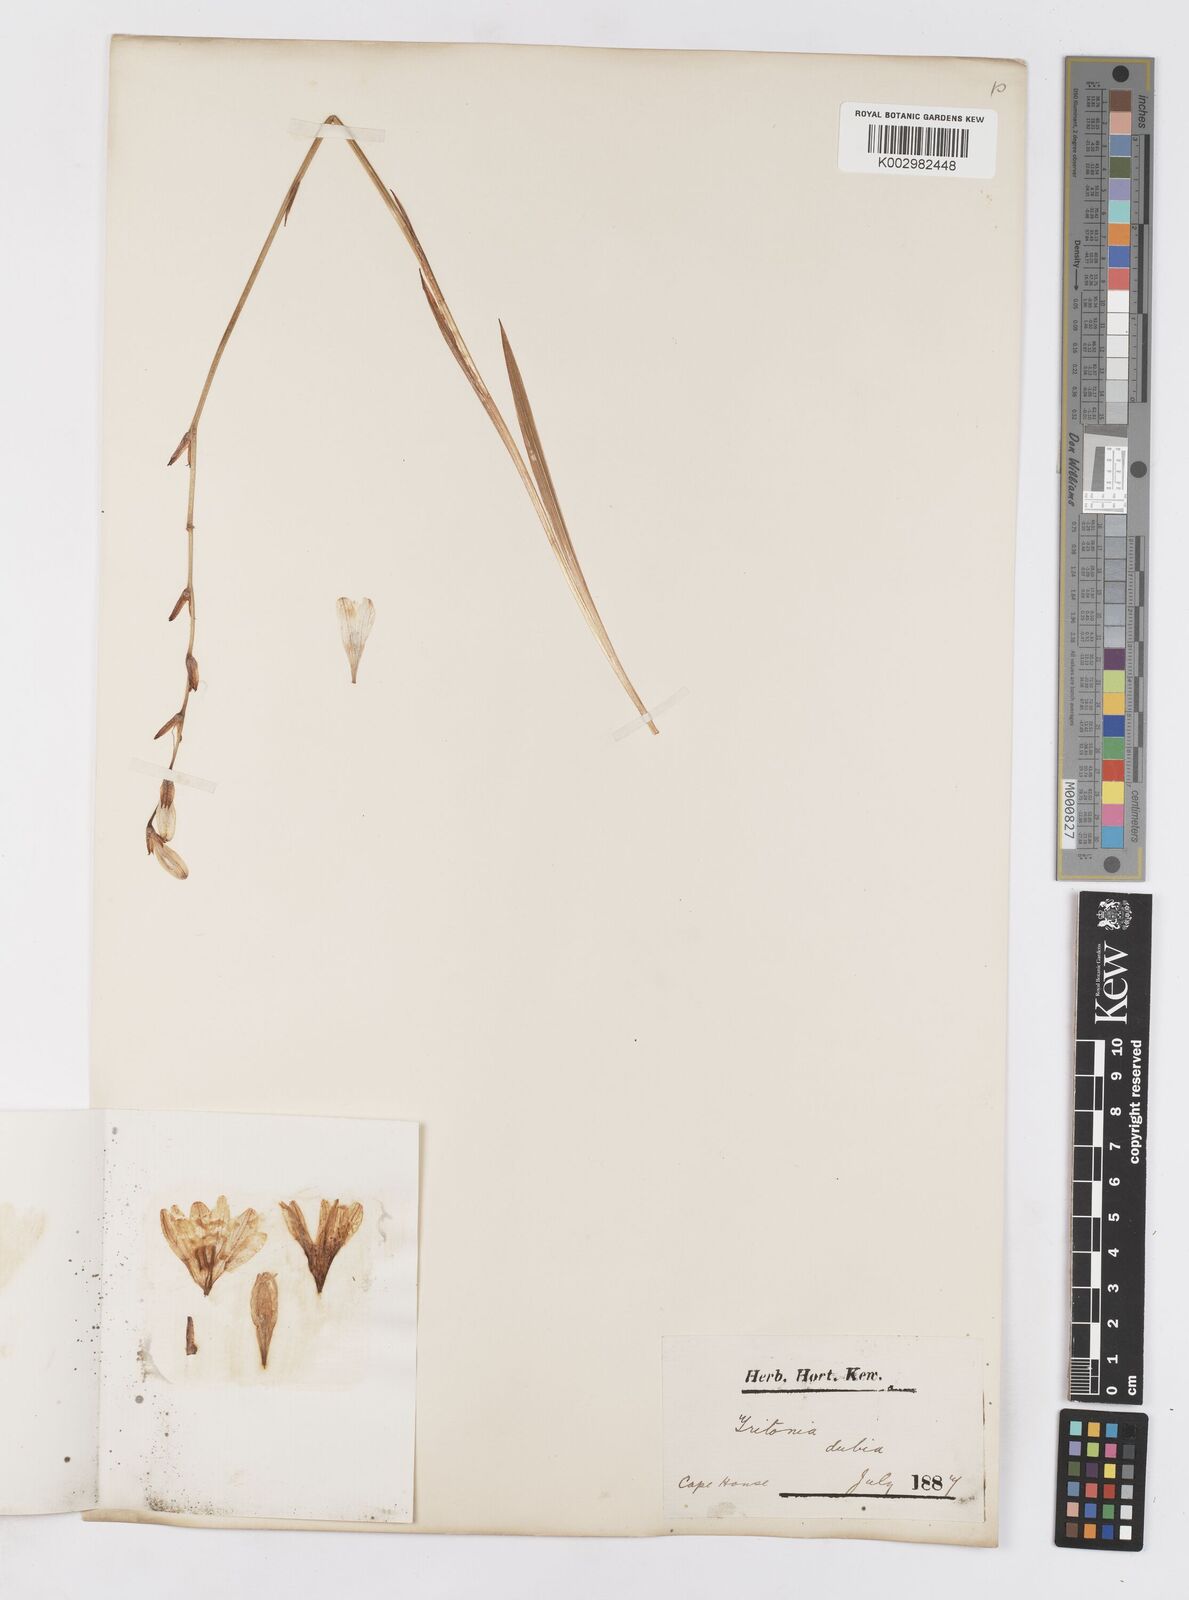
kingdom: Plantae
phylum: Tracheophyta
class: Liliopsida
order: Asparagales
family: Iridaceae
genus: Tritonia
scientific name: Tritonia dubia
